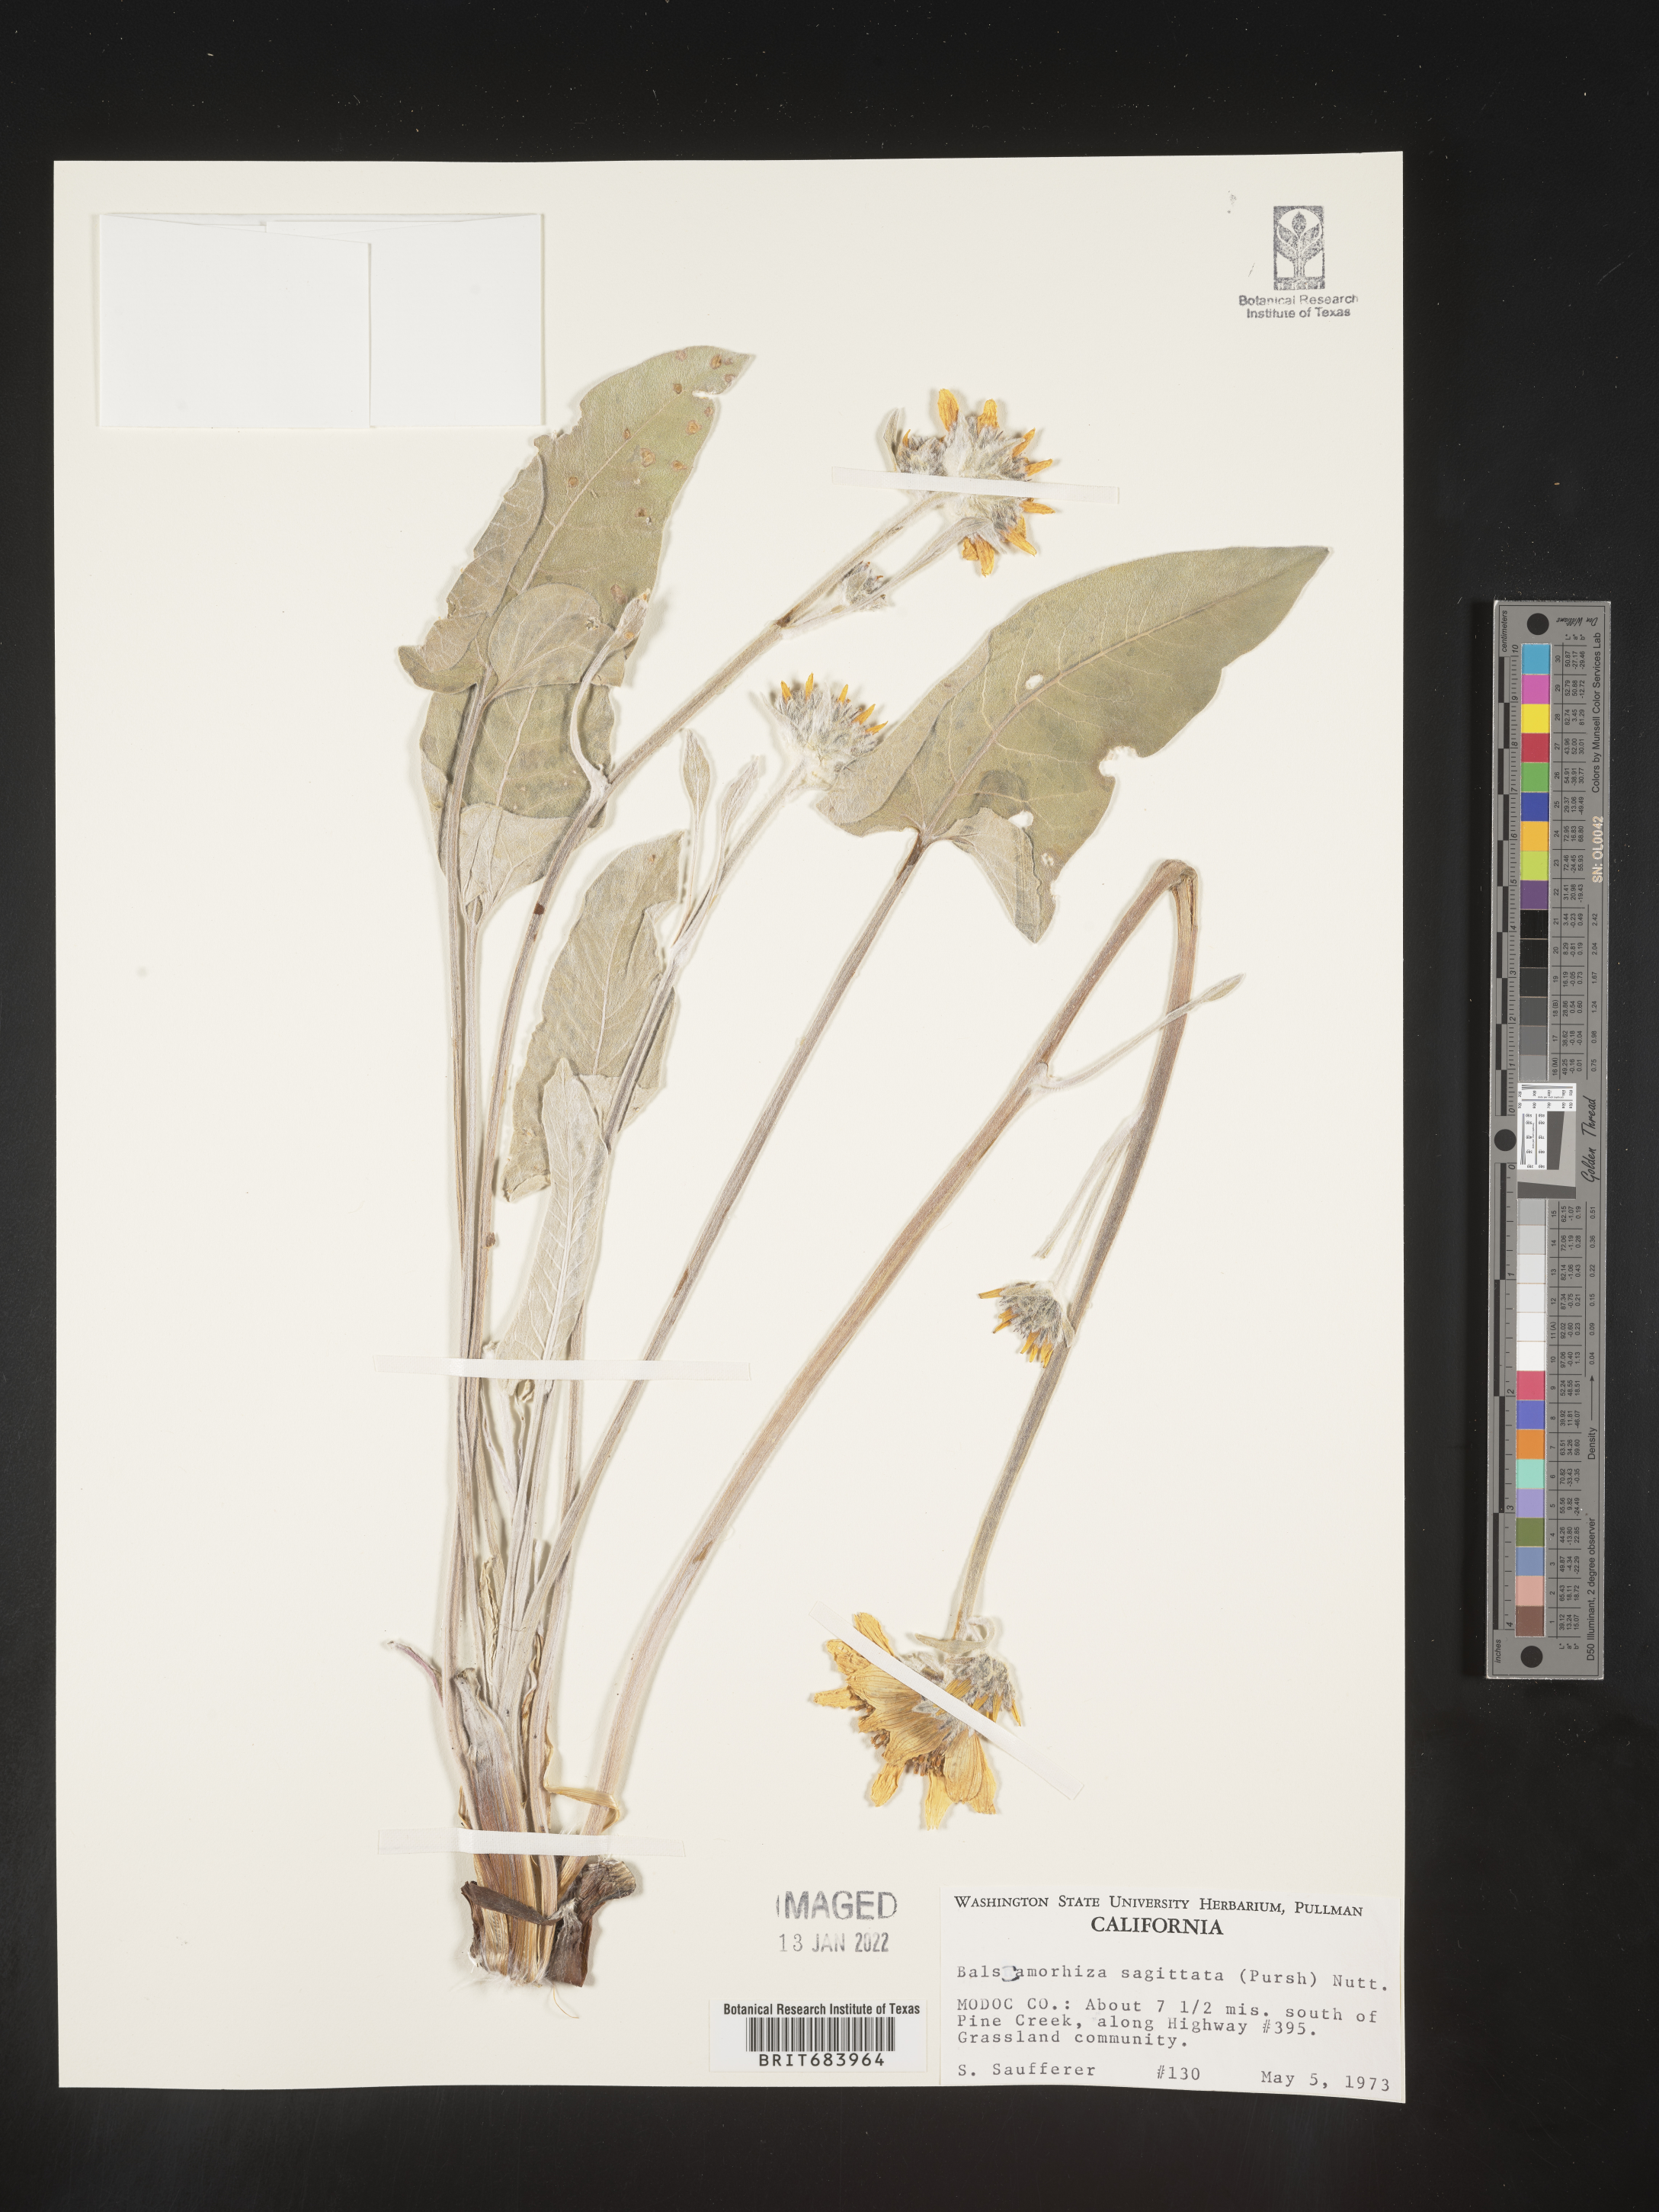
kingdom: Plantae
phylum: Tracheophyta
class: Magnoliopsida
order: Asterales
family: Asteraceae
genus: Wyethia
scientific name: Wyethia sagittata
